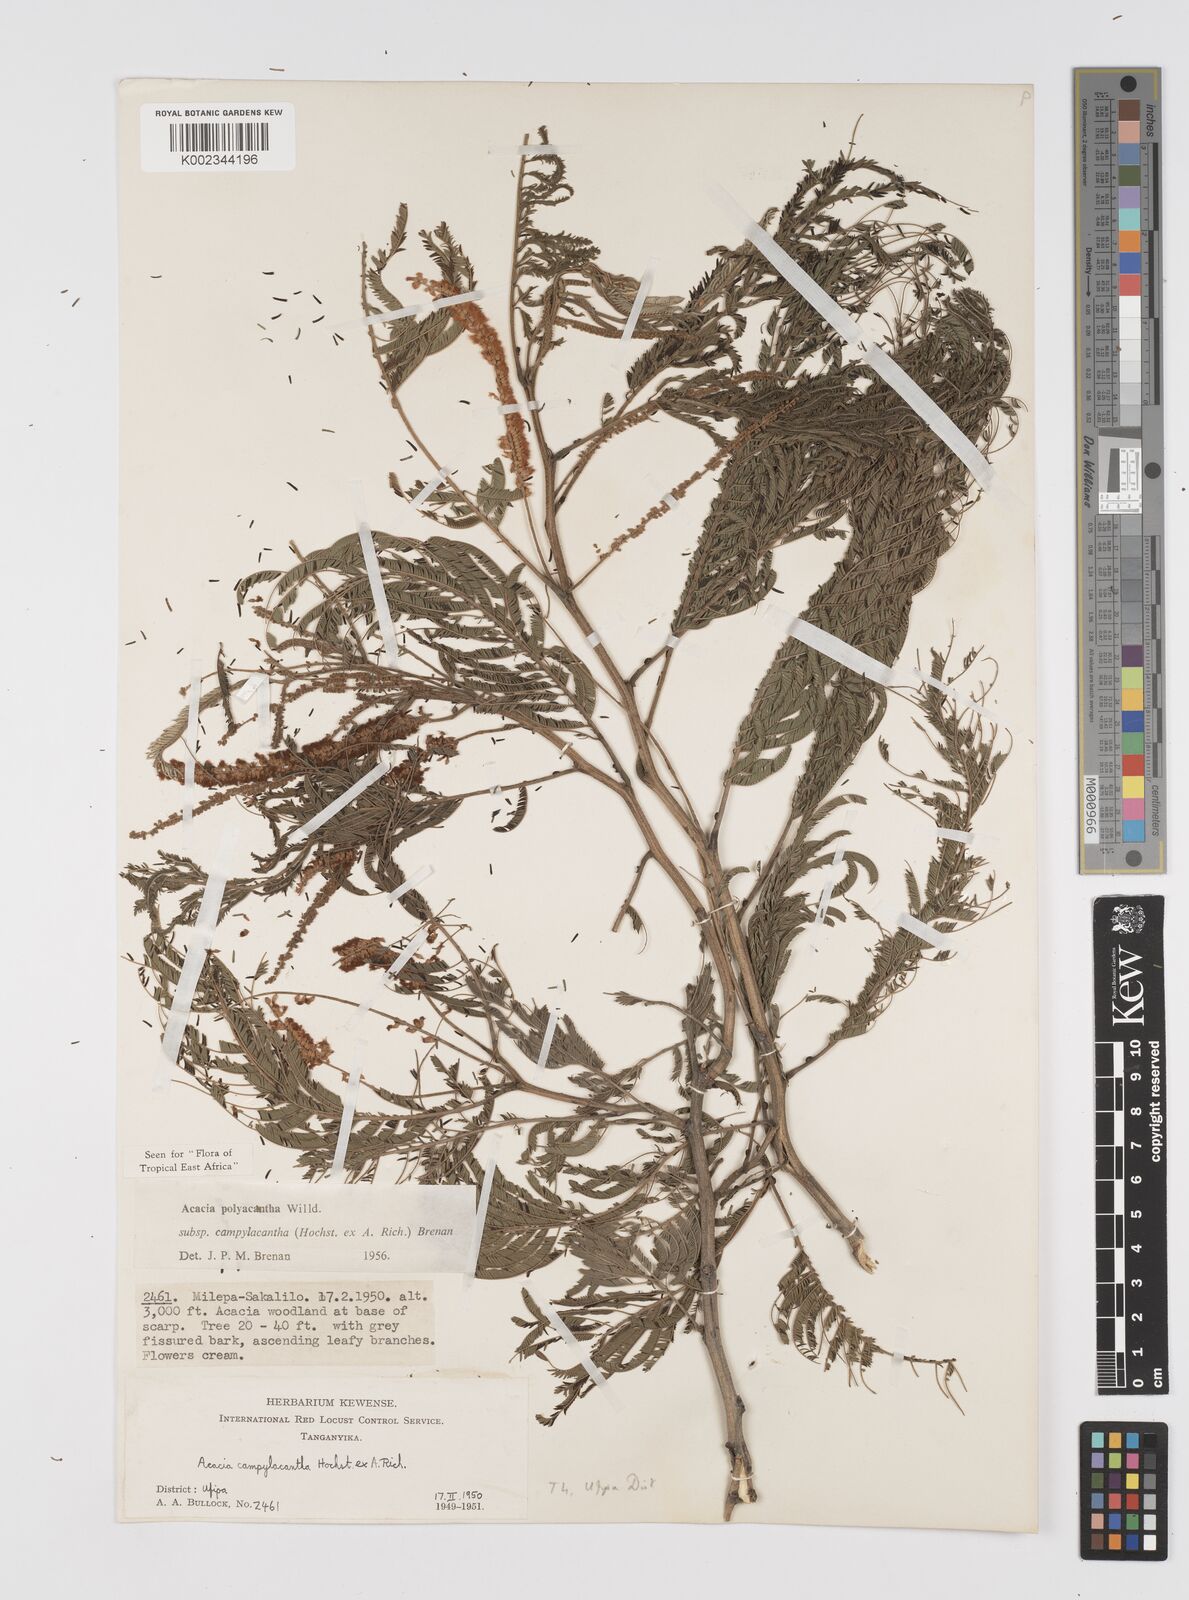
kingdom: Plantae
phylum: Tracheophyta
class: Magnoliopsida
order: Fabales
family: Fabaceae
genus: Senegalia
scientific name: Senegalia polyacantha
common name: Whitethorn
